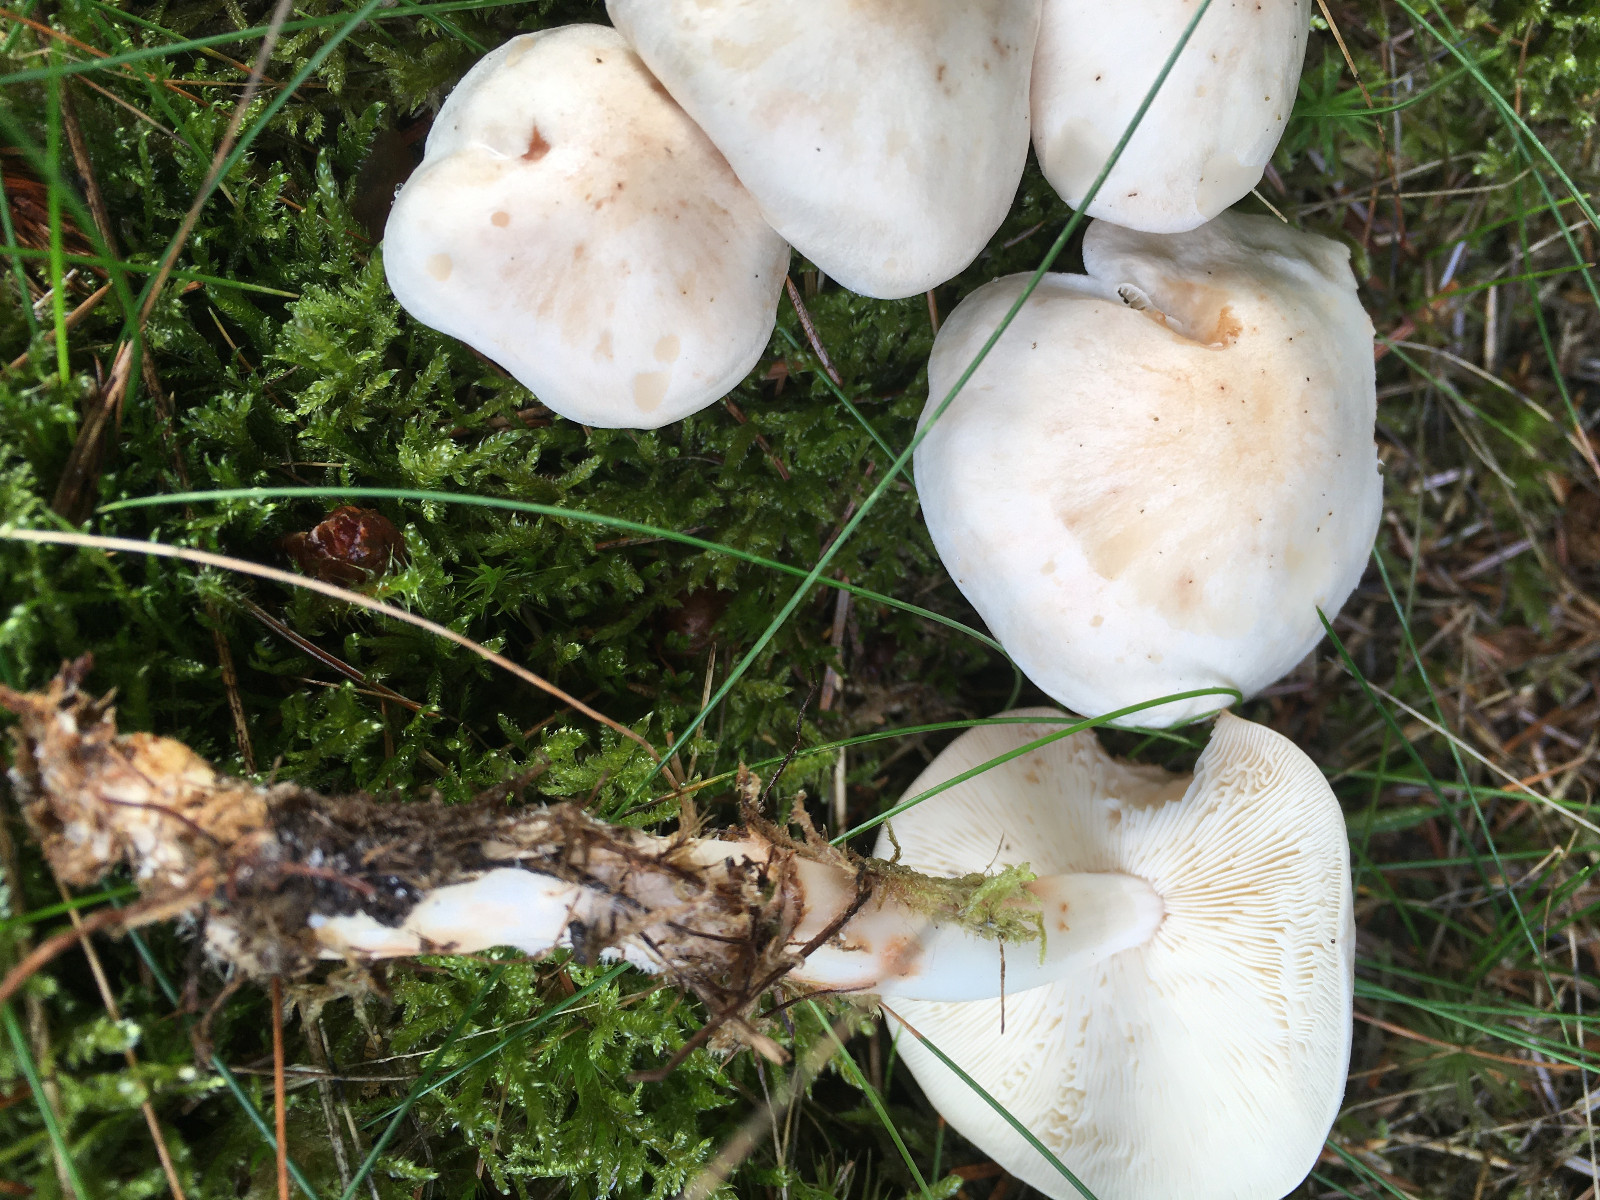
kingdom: Fungi
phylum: Basidiomycota
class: Agaricomycetes
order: Agaricales
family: Omphalotaceae
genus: Rhodocollybia
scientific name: Rhodocollybia maculata
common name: plettet fladhat
